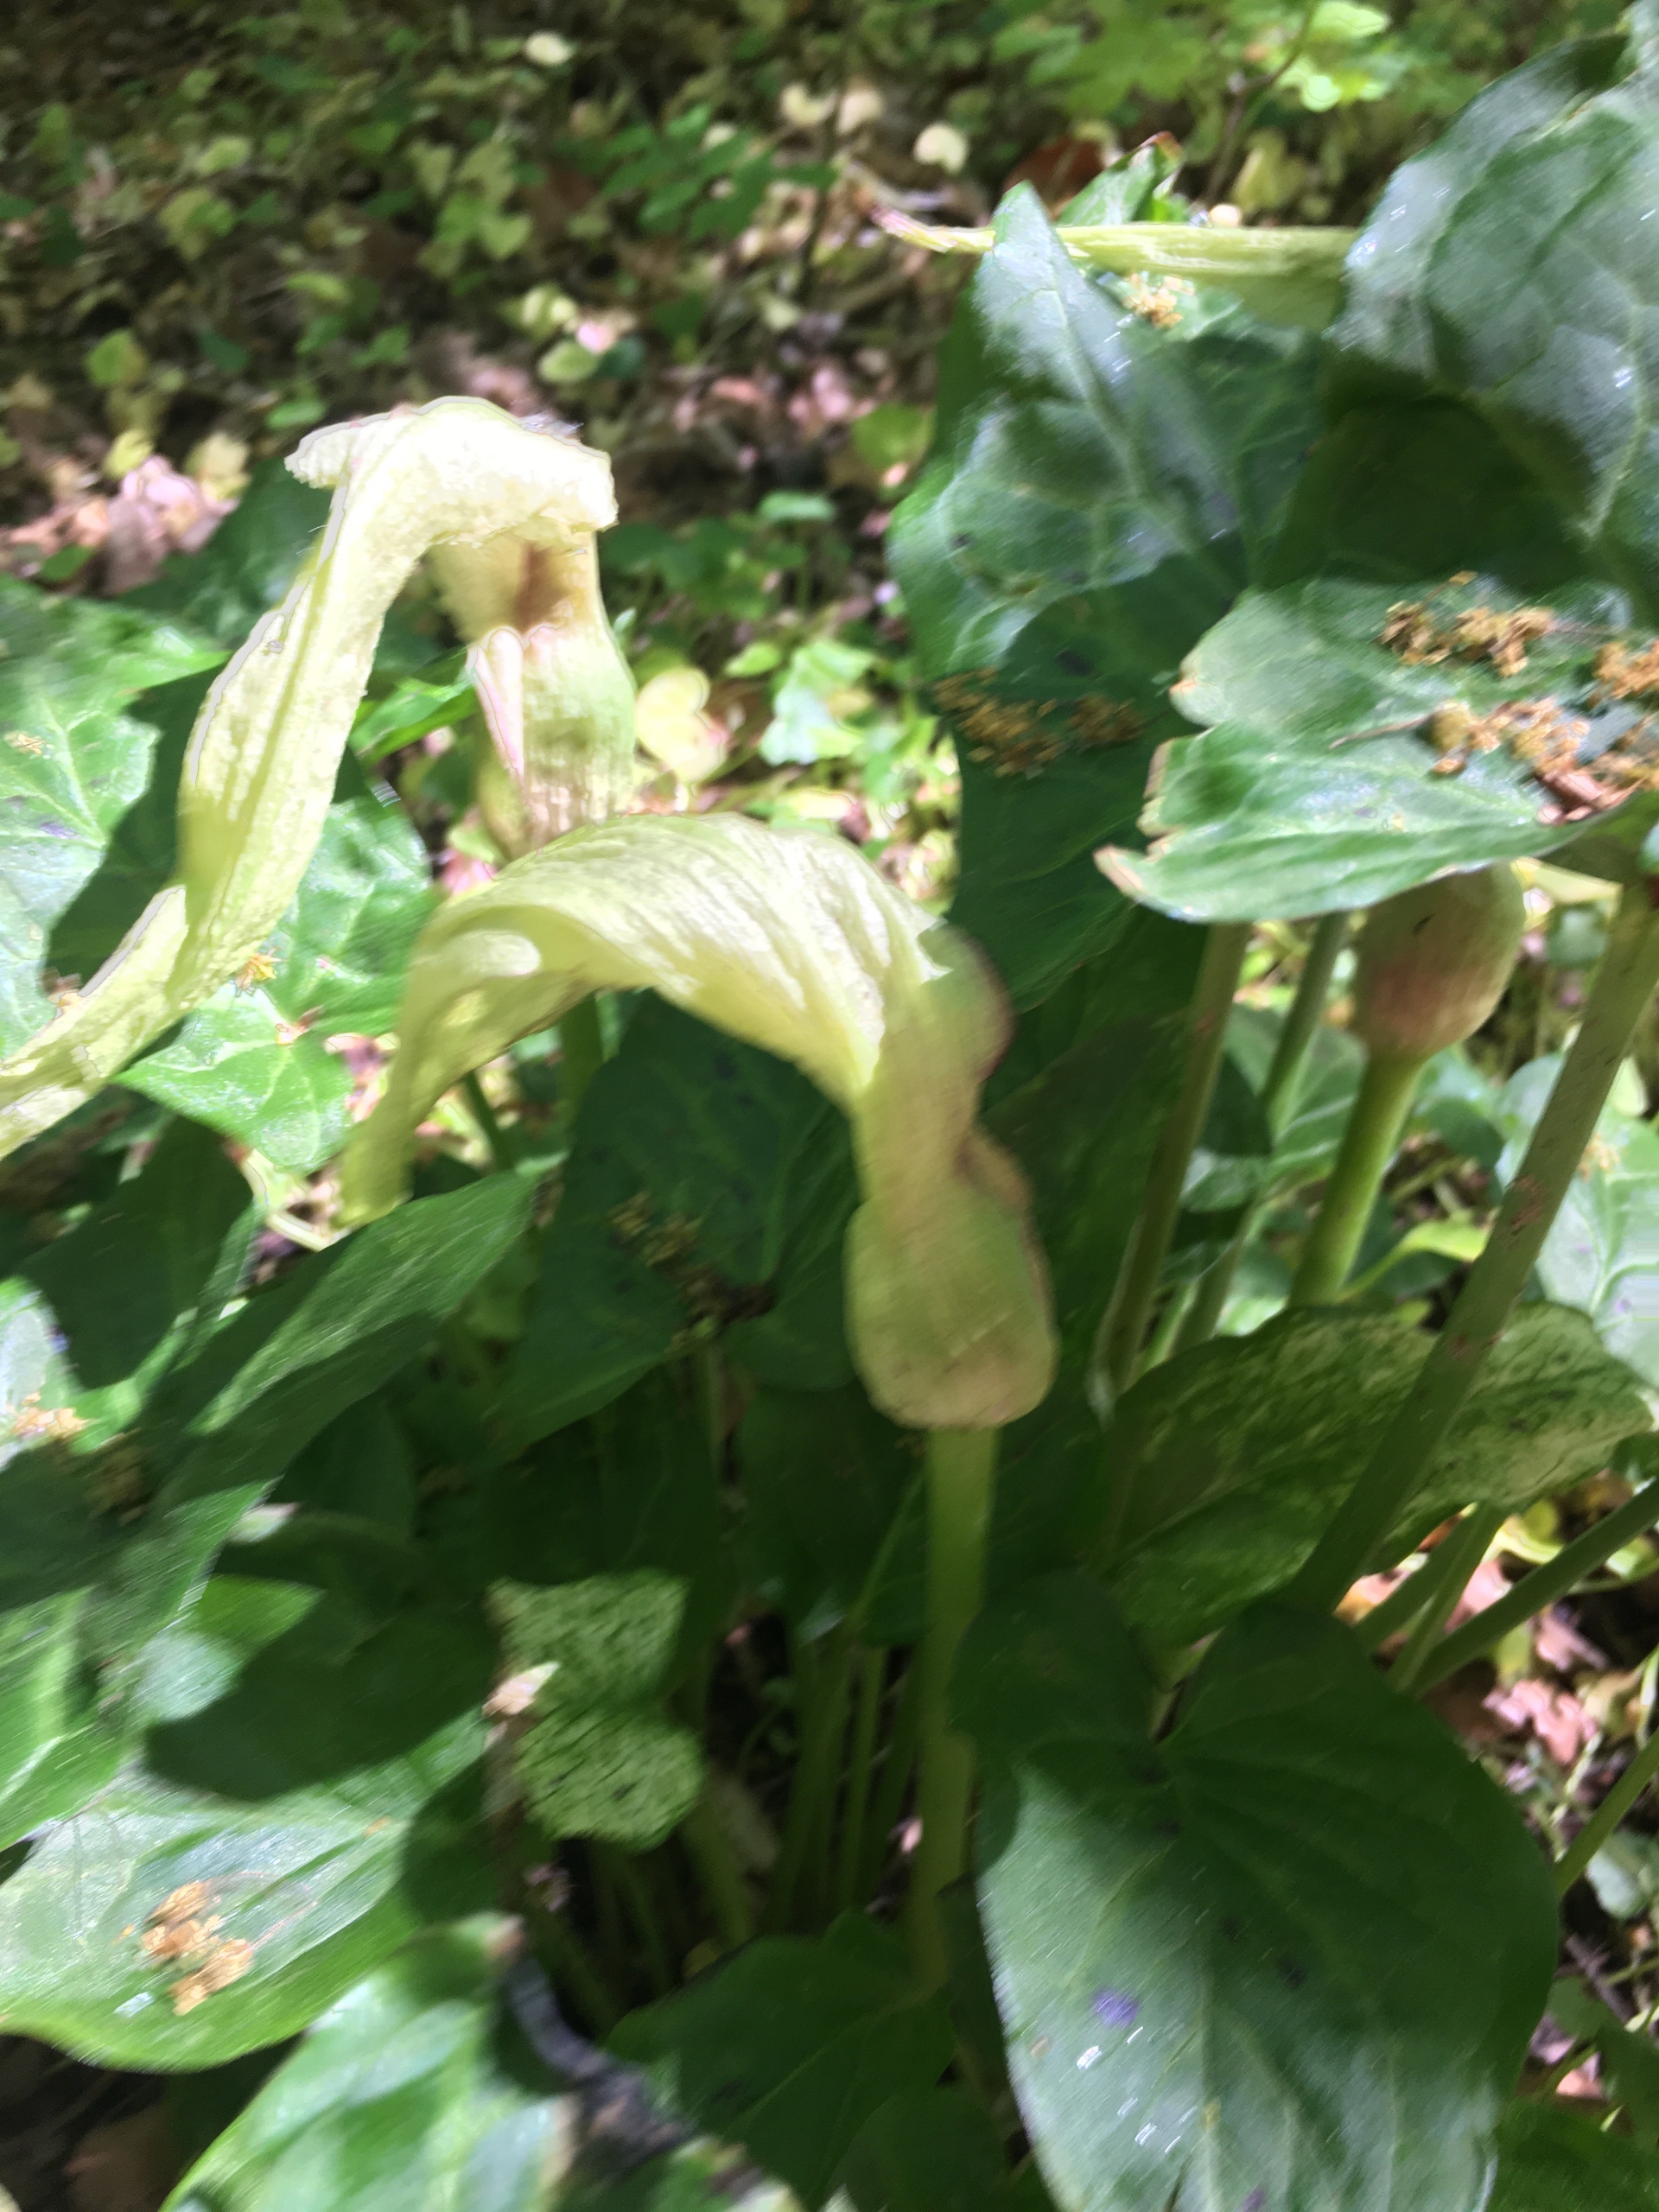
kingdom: Plantae
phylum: Tracheophyta
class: Liliopsida
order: Alismatales
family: Araceae
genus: Arum
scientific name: Arum maculatum
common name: Plettet arum
